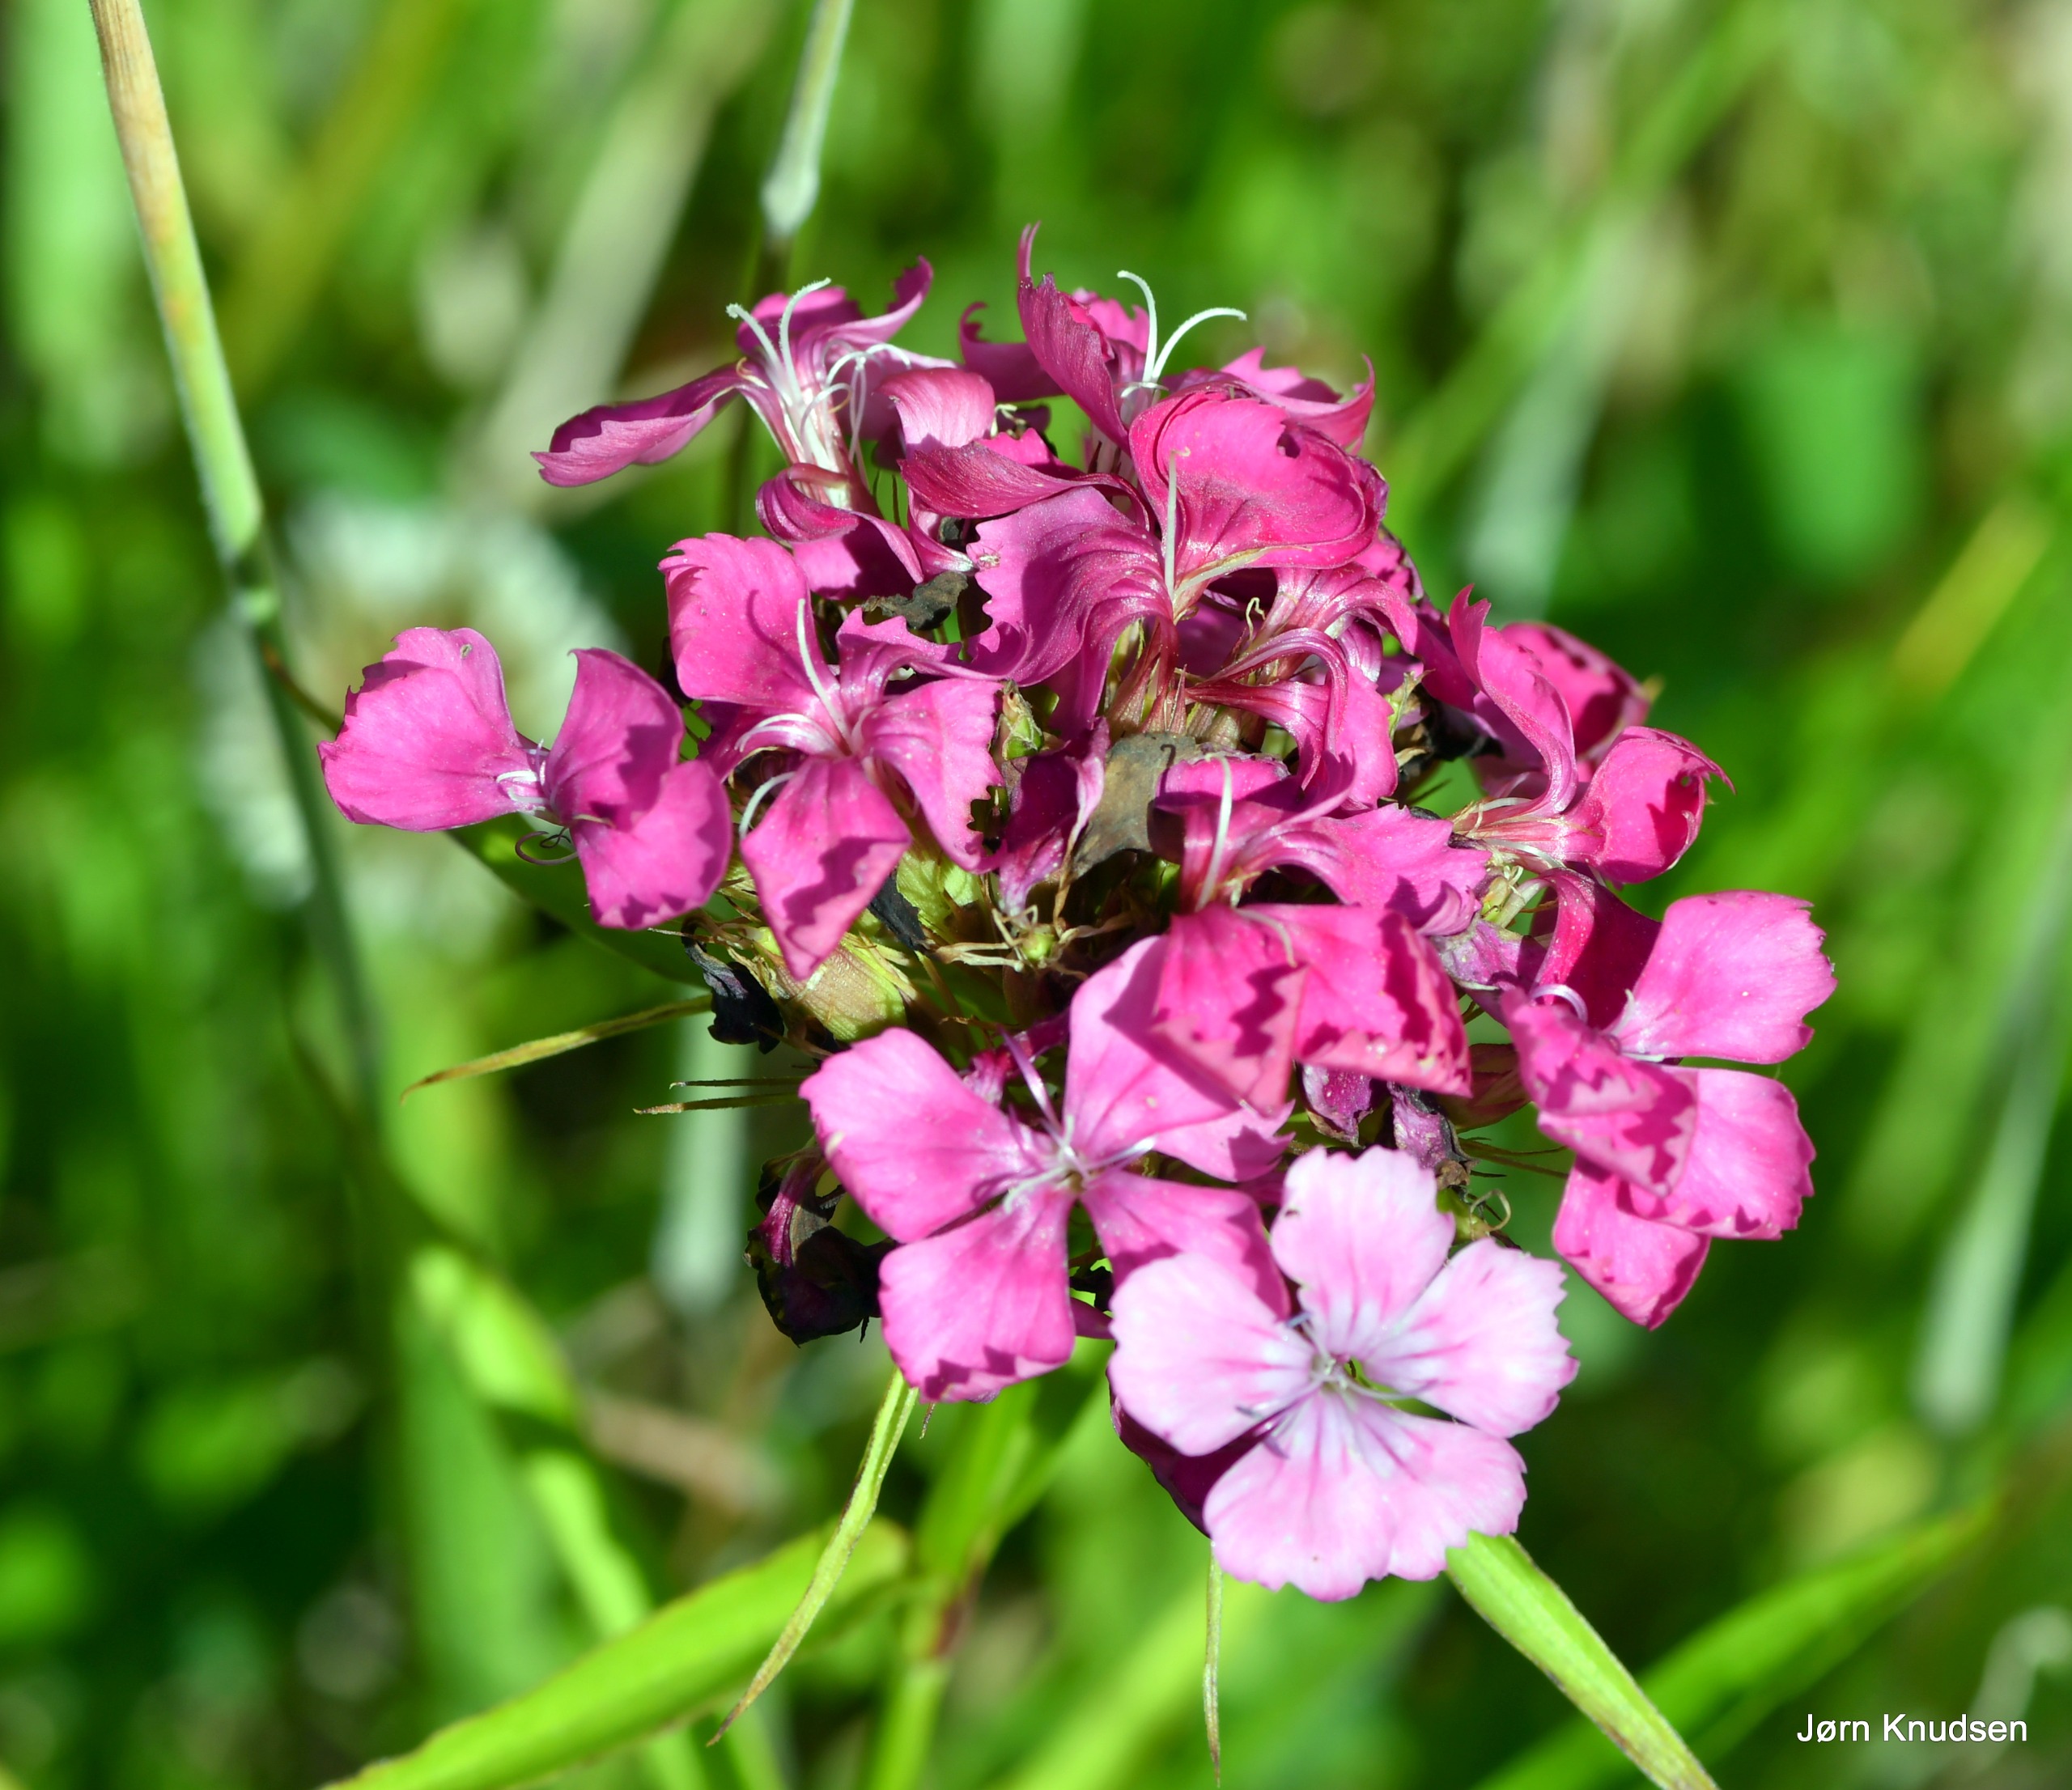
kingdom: Plantae
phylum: Tracheophyta
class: Magnoliopsida
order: Caryophyllales
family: Caryophyllaceae
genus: Dianthus
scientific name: Dianthus barbatus
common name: Studenter-nellike
